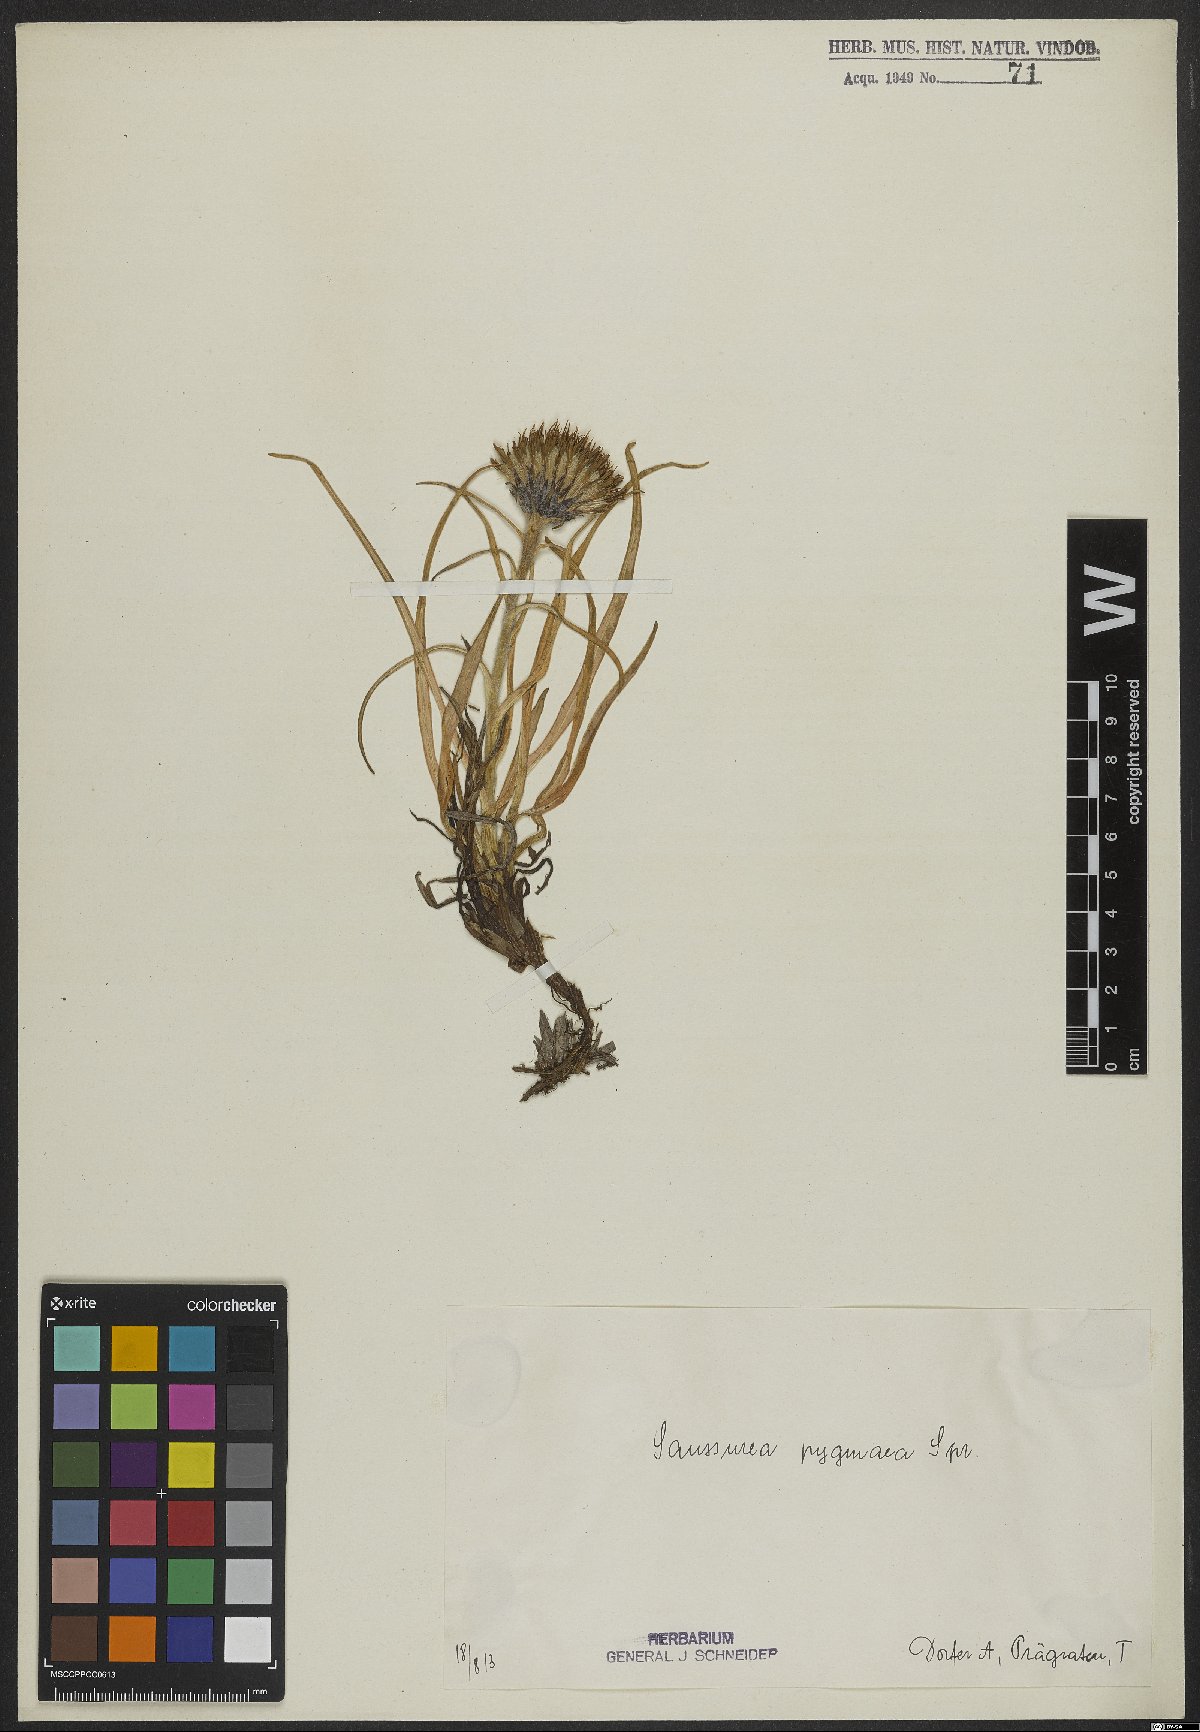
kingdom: Plantae
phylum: Tracheophyta
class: Magnoliopsida
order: Asterales
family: Asteraceae
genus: Saussurea
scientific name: Saussurea pygmaea
